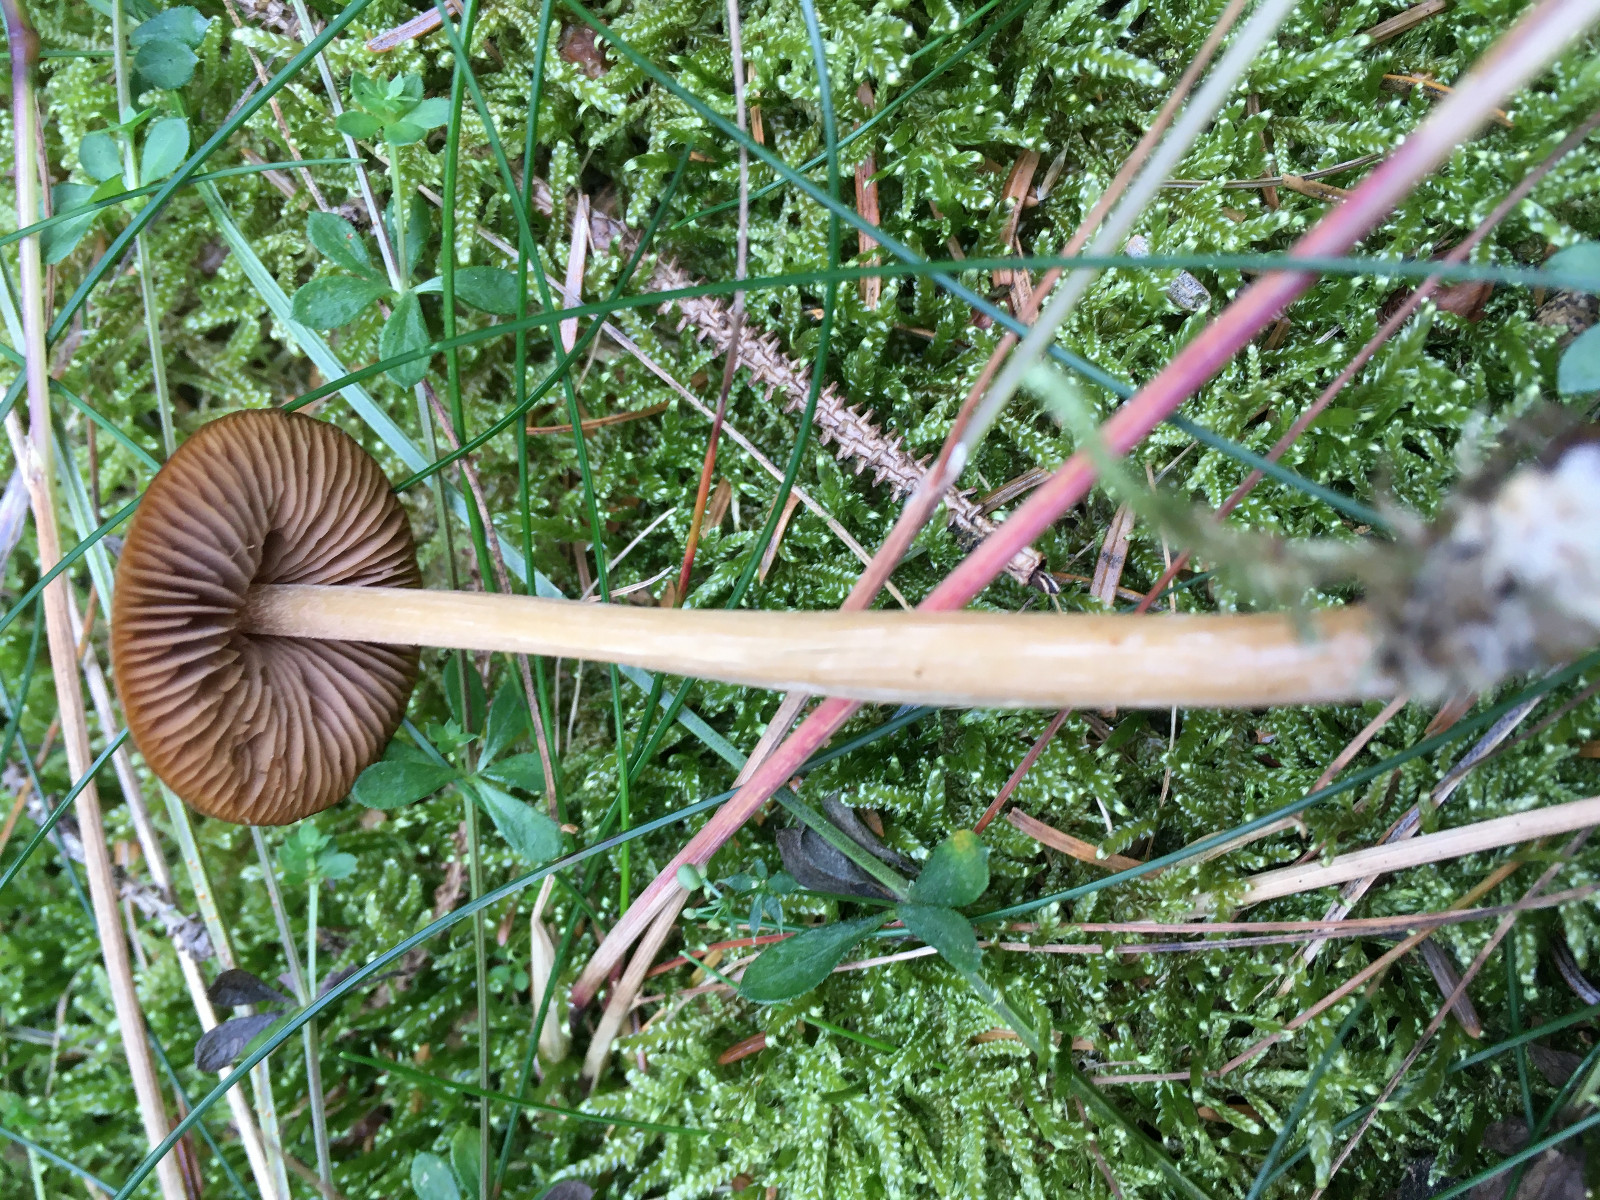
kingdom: Fungi
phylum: Basidiomycota
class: Agaricomycetes
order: Agaricales
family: Entolomataceae
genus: Entoloma
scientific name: Entoloma
